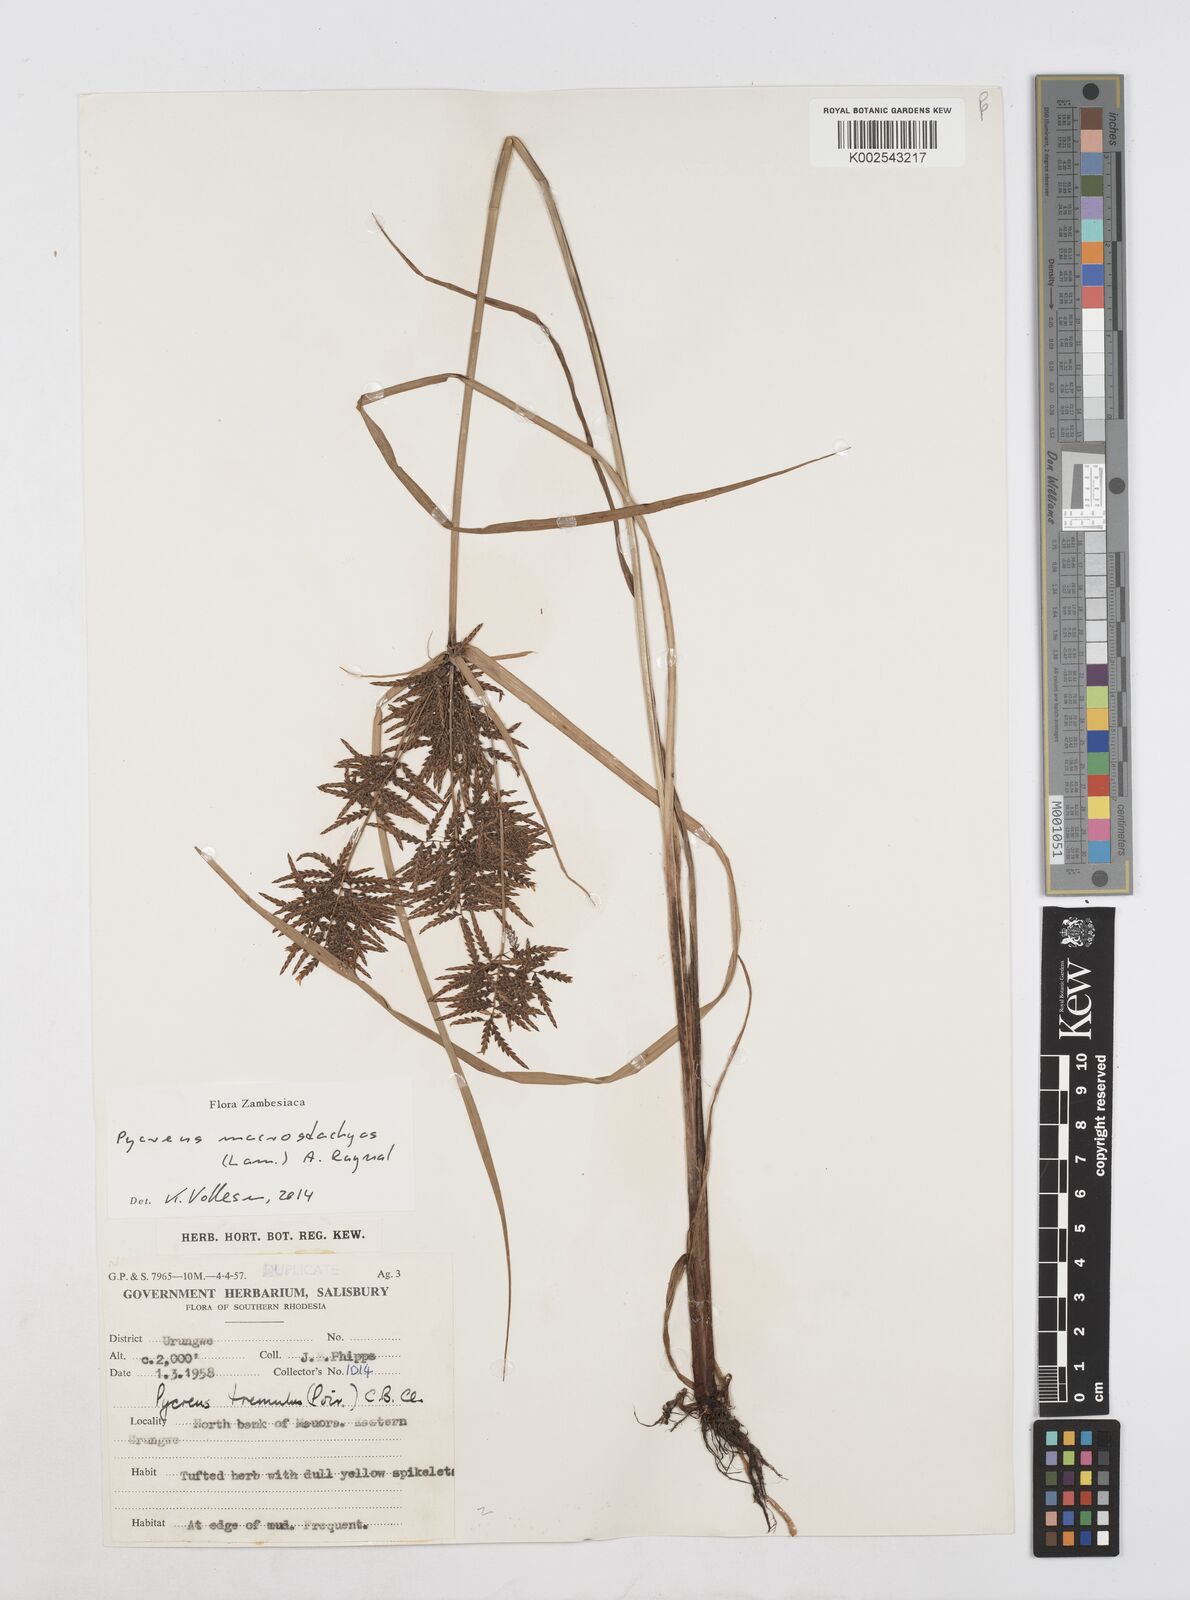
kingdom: Plantae
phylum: Tracheophyta
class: Liliopsida
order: Poales
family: Cyperaceae
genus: Cyperus
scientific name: Cyperus macrostachyos
